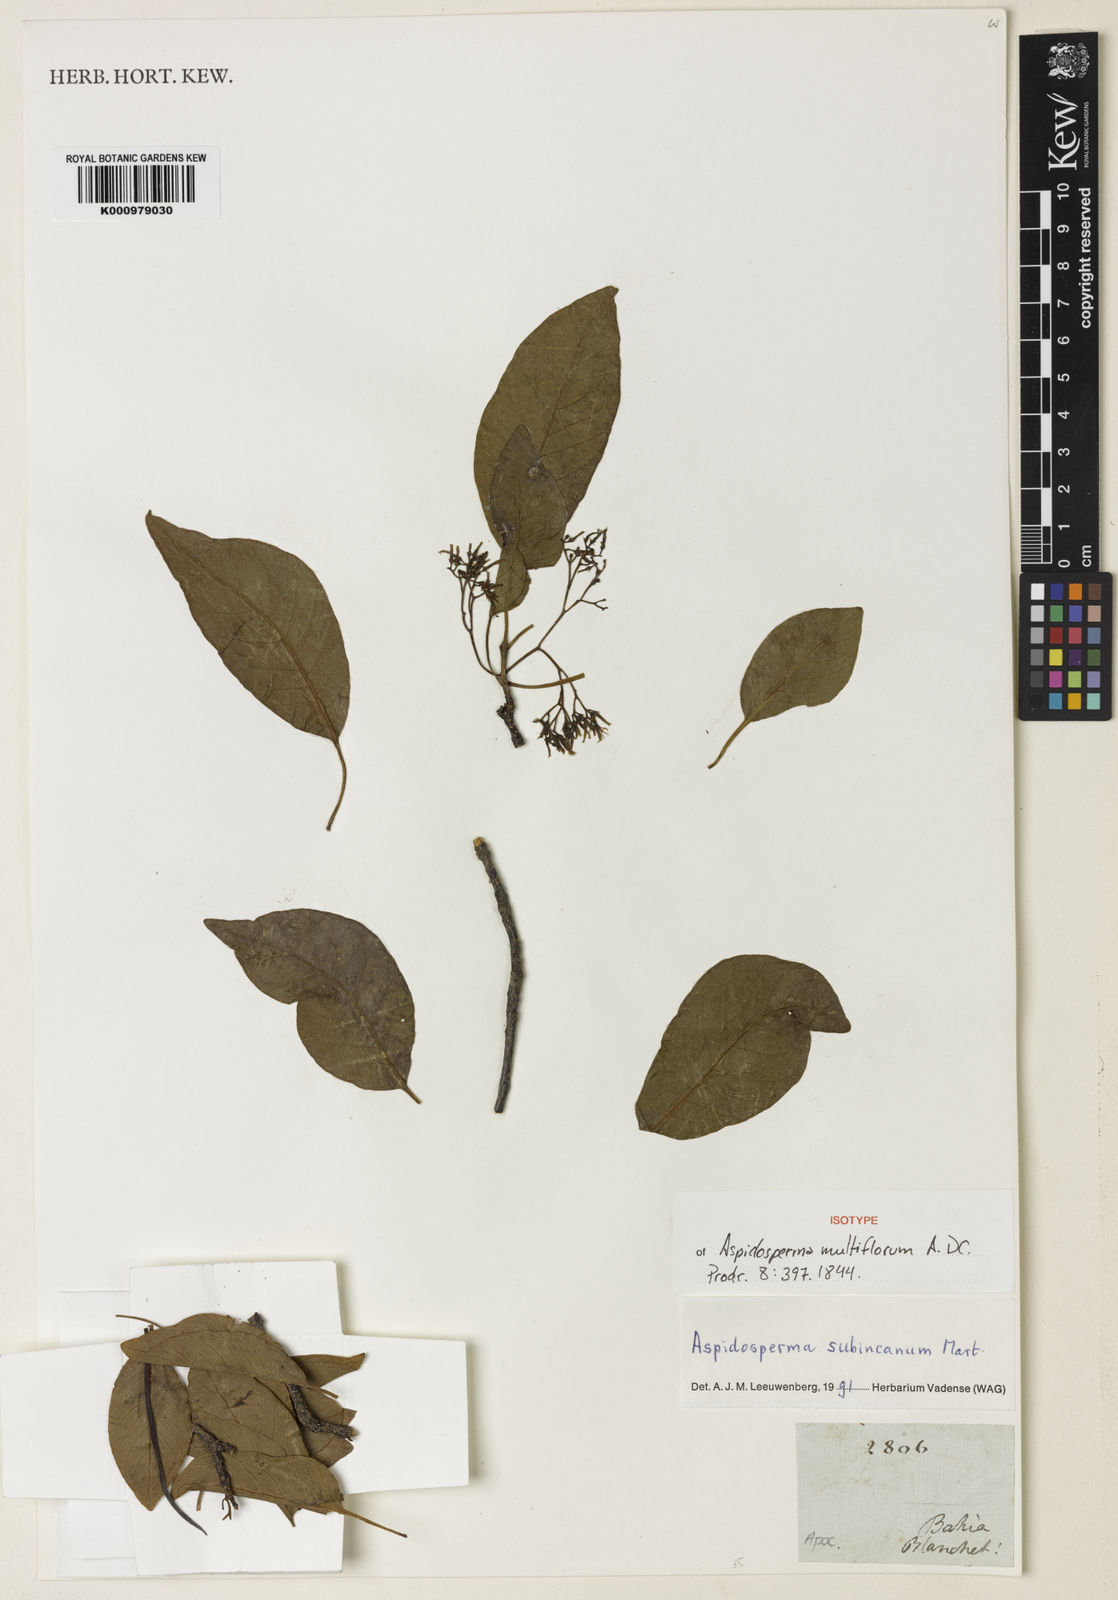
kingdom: Plantae
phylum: Tracheophyta
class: Magnoliopsida
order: Gentianales
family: Apocynaceae
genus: Aspidosperma
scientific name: Aspidosperma multiflorum
